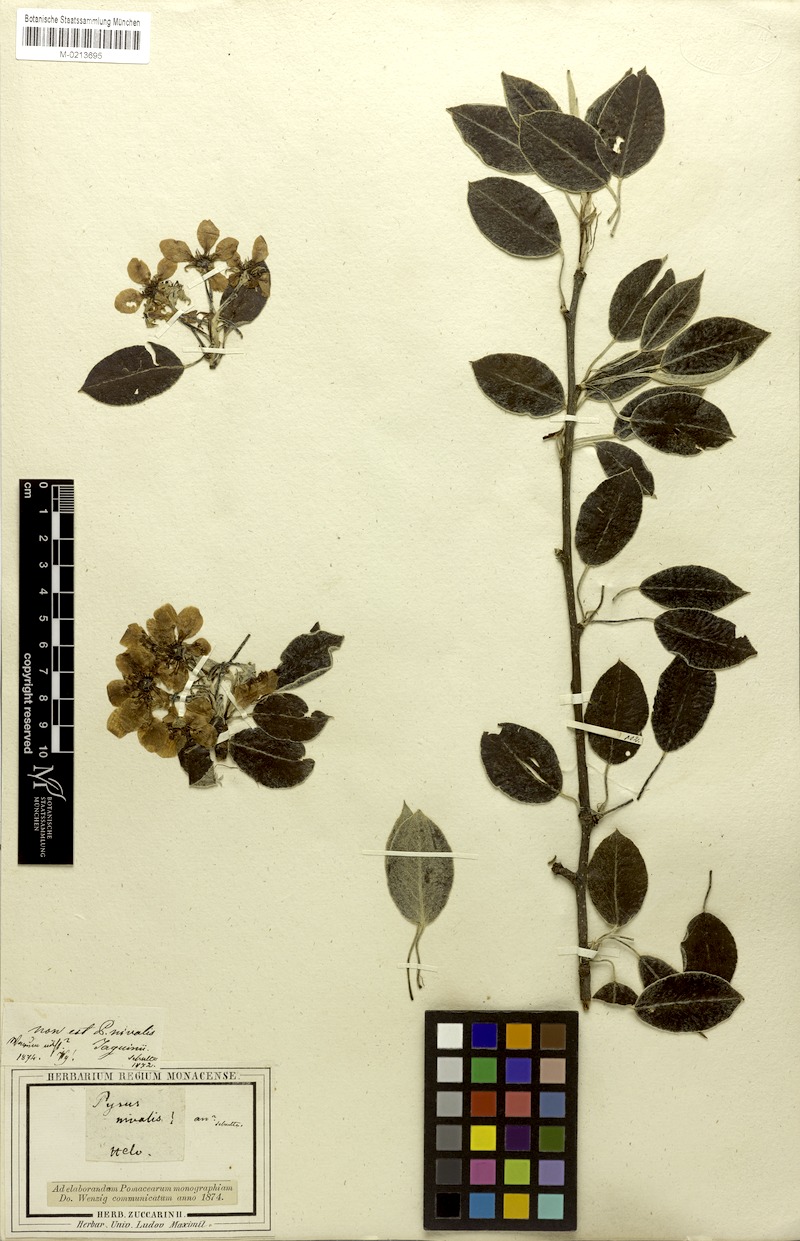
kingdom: Plantae
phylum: Tracheophyta
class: Magnoliopsida
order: Rosales
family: Rosaceae
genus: Pyrus
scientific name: Pyrus nivalis
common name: Snow pear
